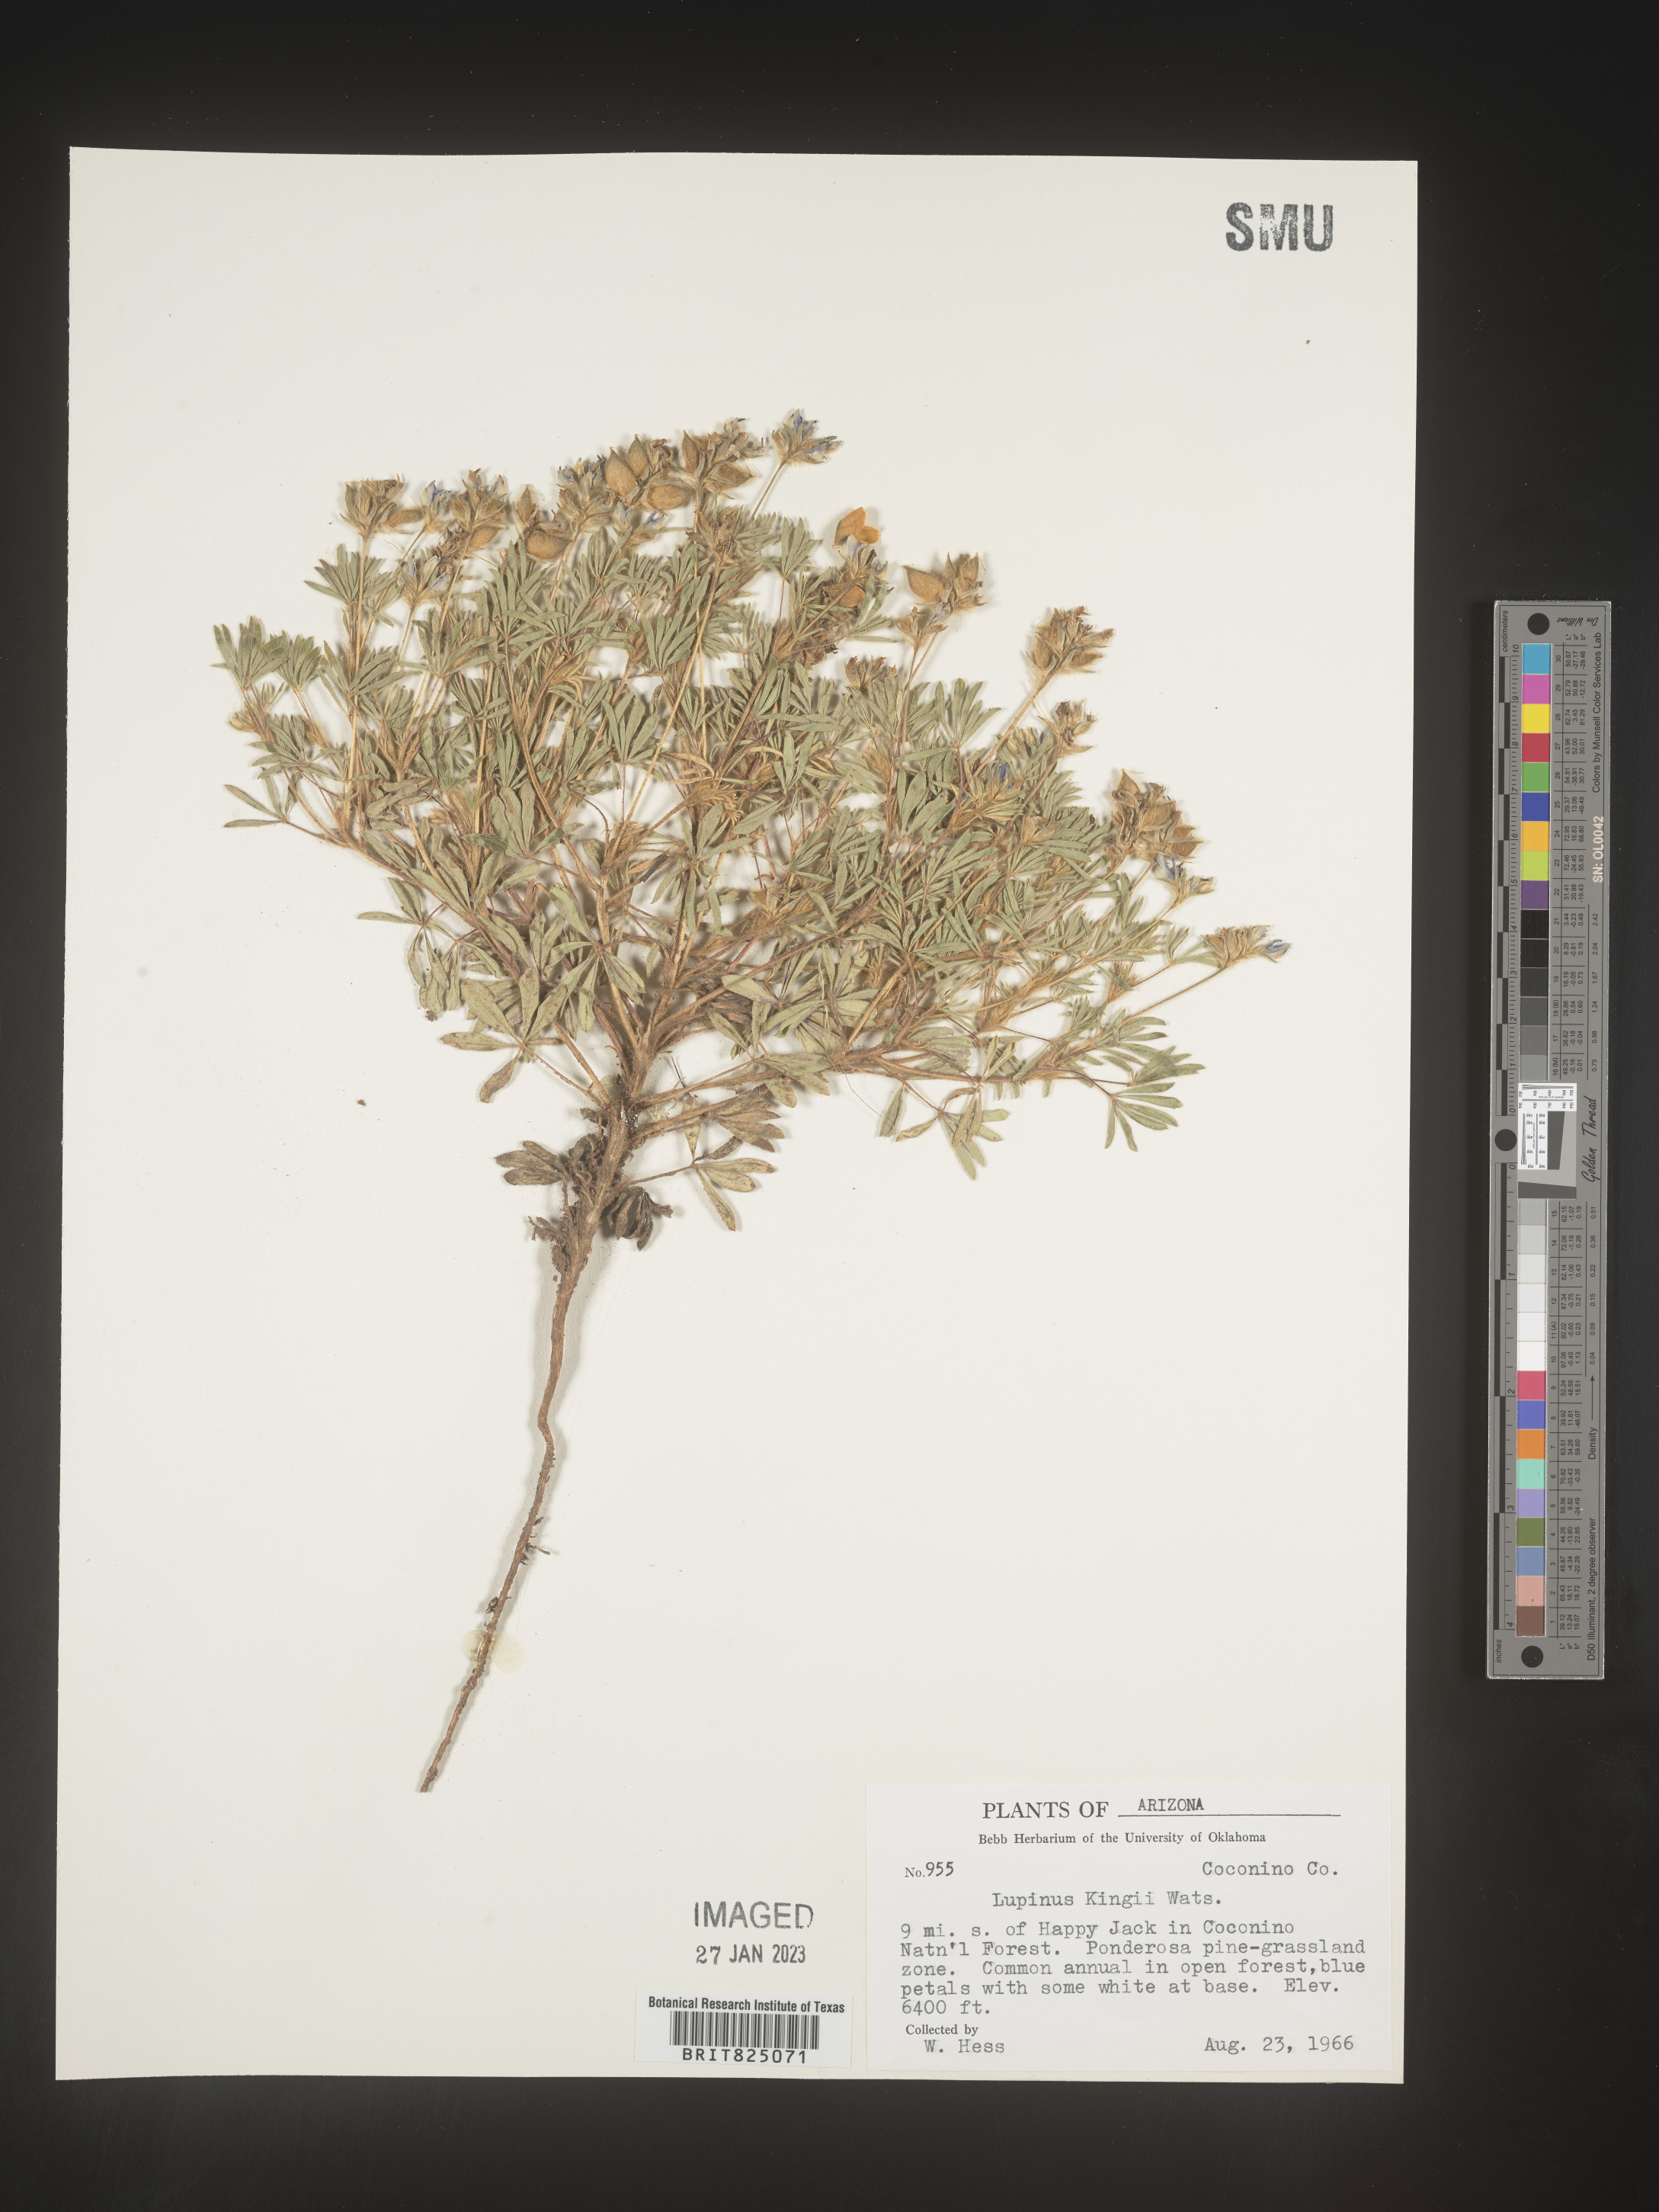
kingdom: Plantae
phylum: Tracheophyta
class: Magnoliopsida
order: Fabales
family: Fabaceae
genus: Lupinus
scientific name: Lupinus
